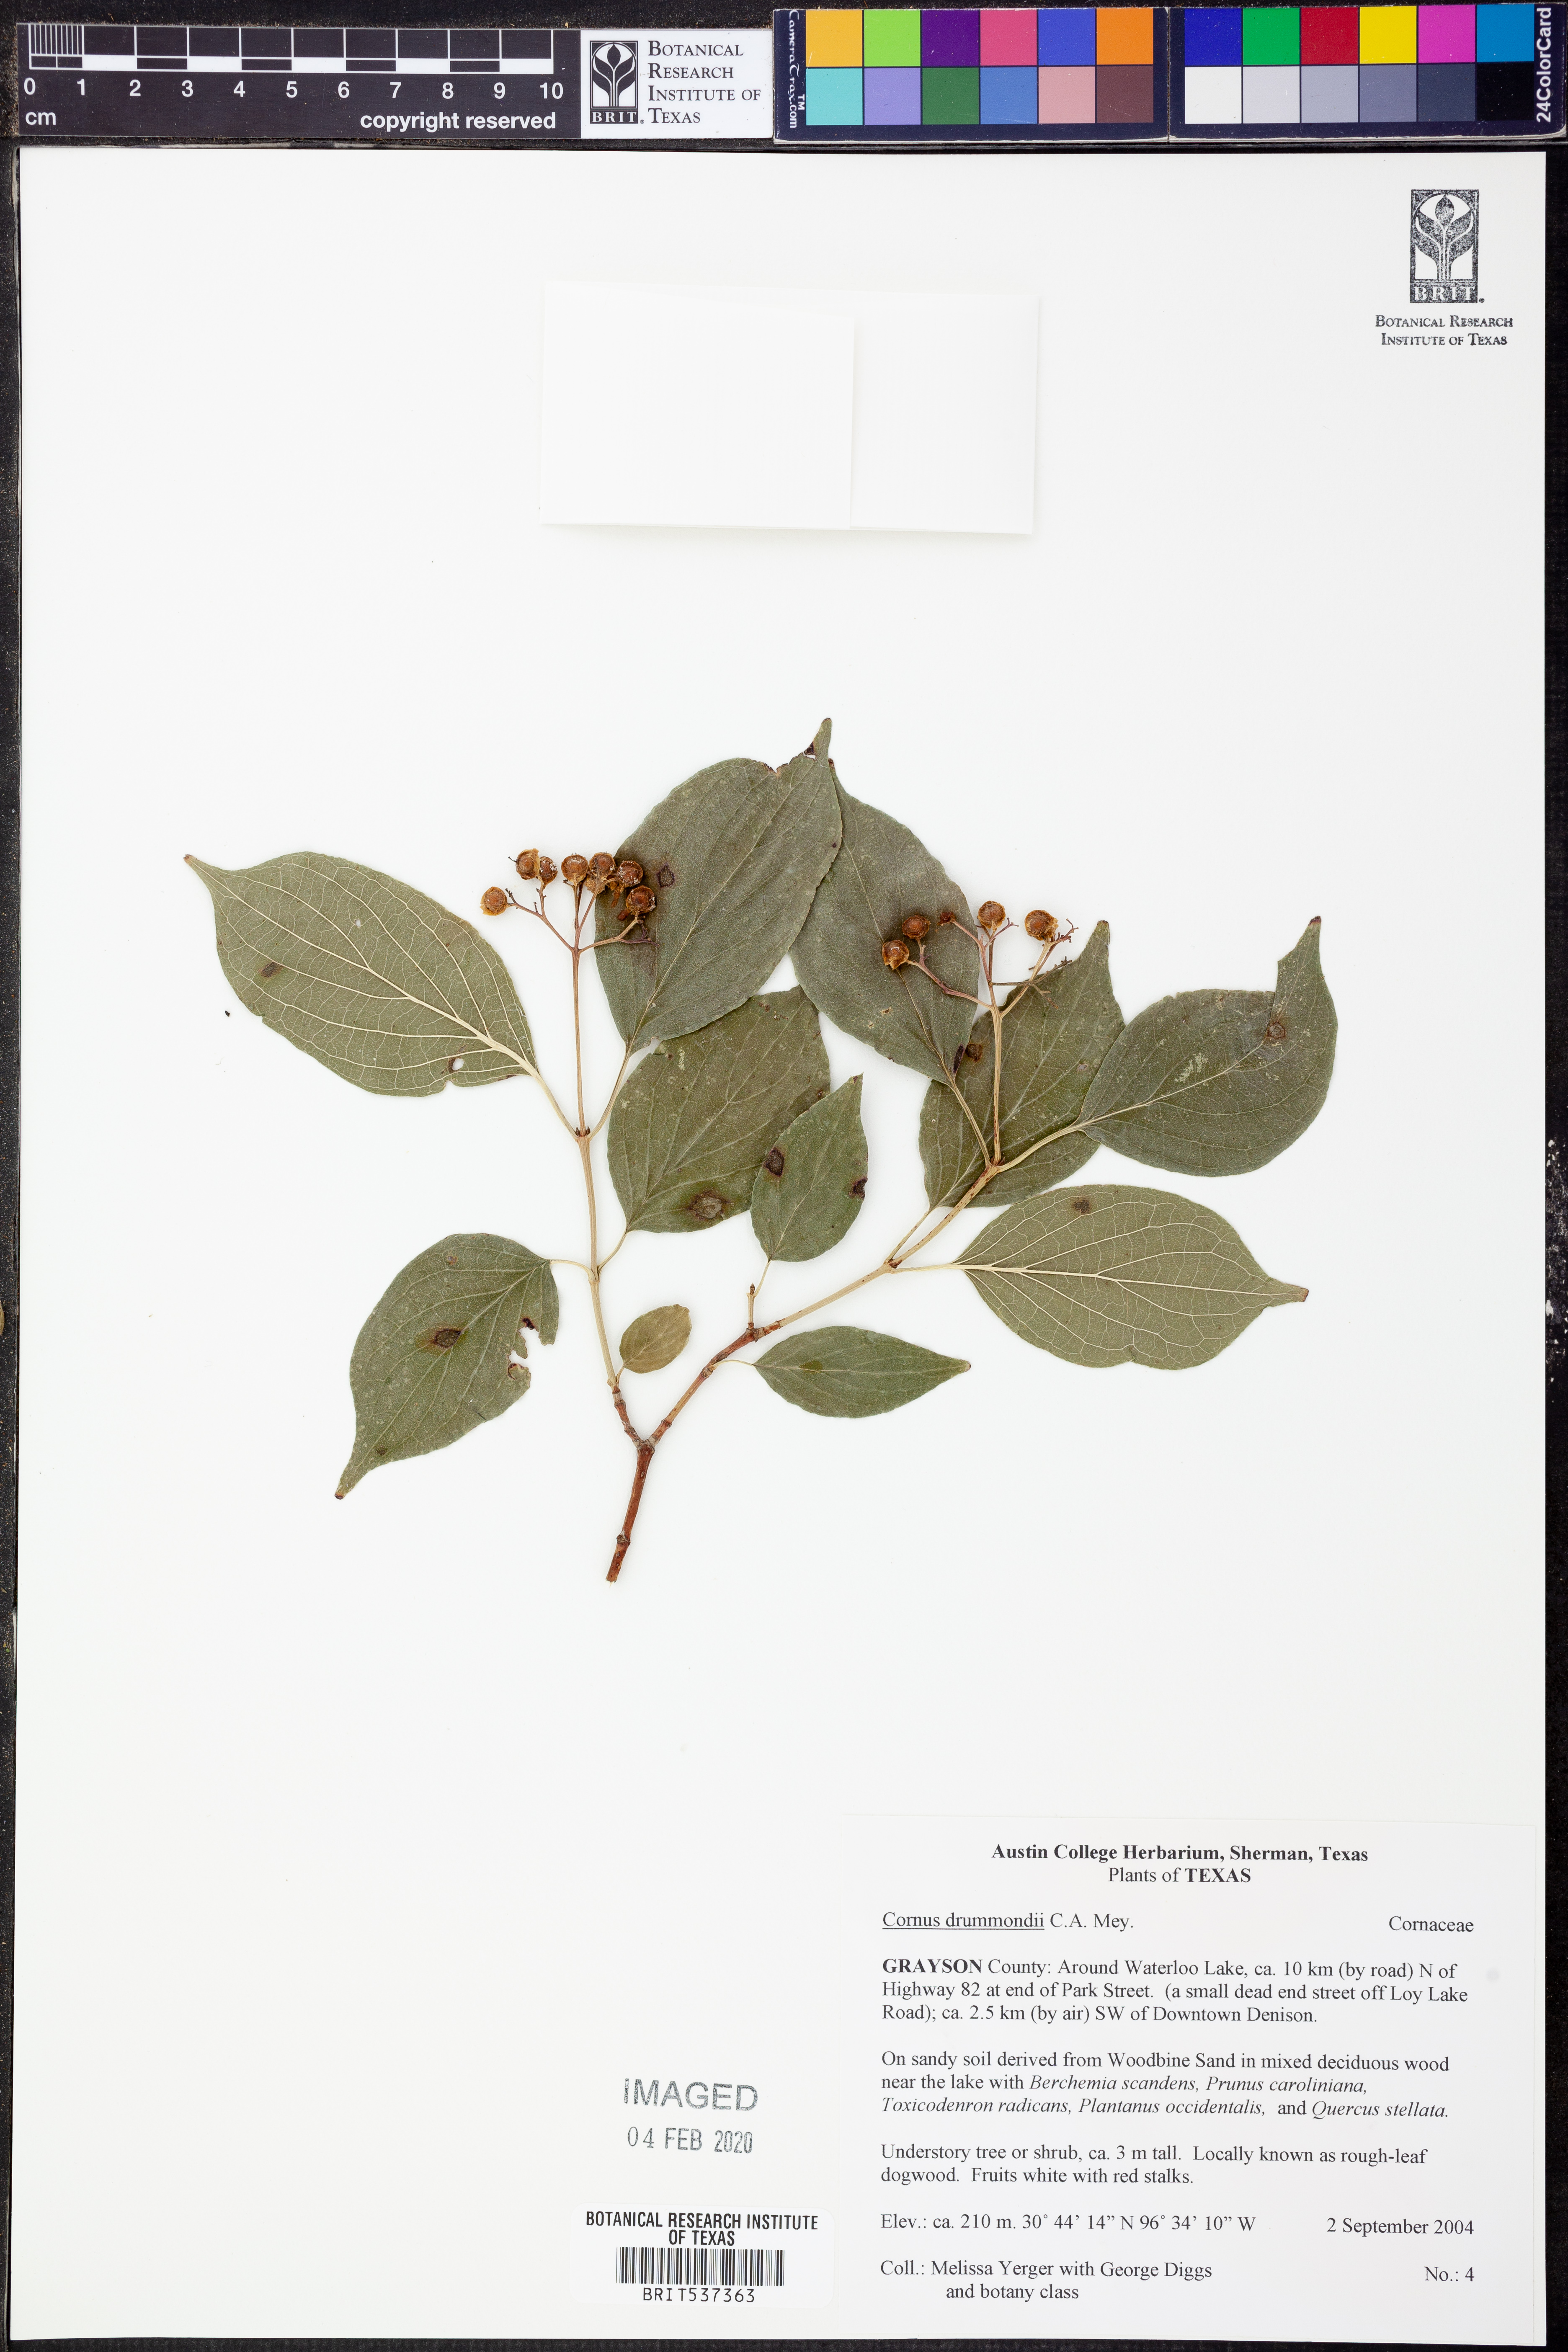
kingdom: Plantae
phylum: Tracheophyta
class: Magnoliopsida
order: Cornales
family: Cornaceae
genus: Cornus
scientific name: Cornus drummondii
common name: Rough-leaf dogwood
